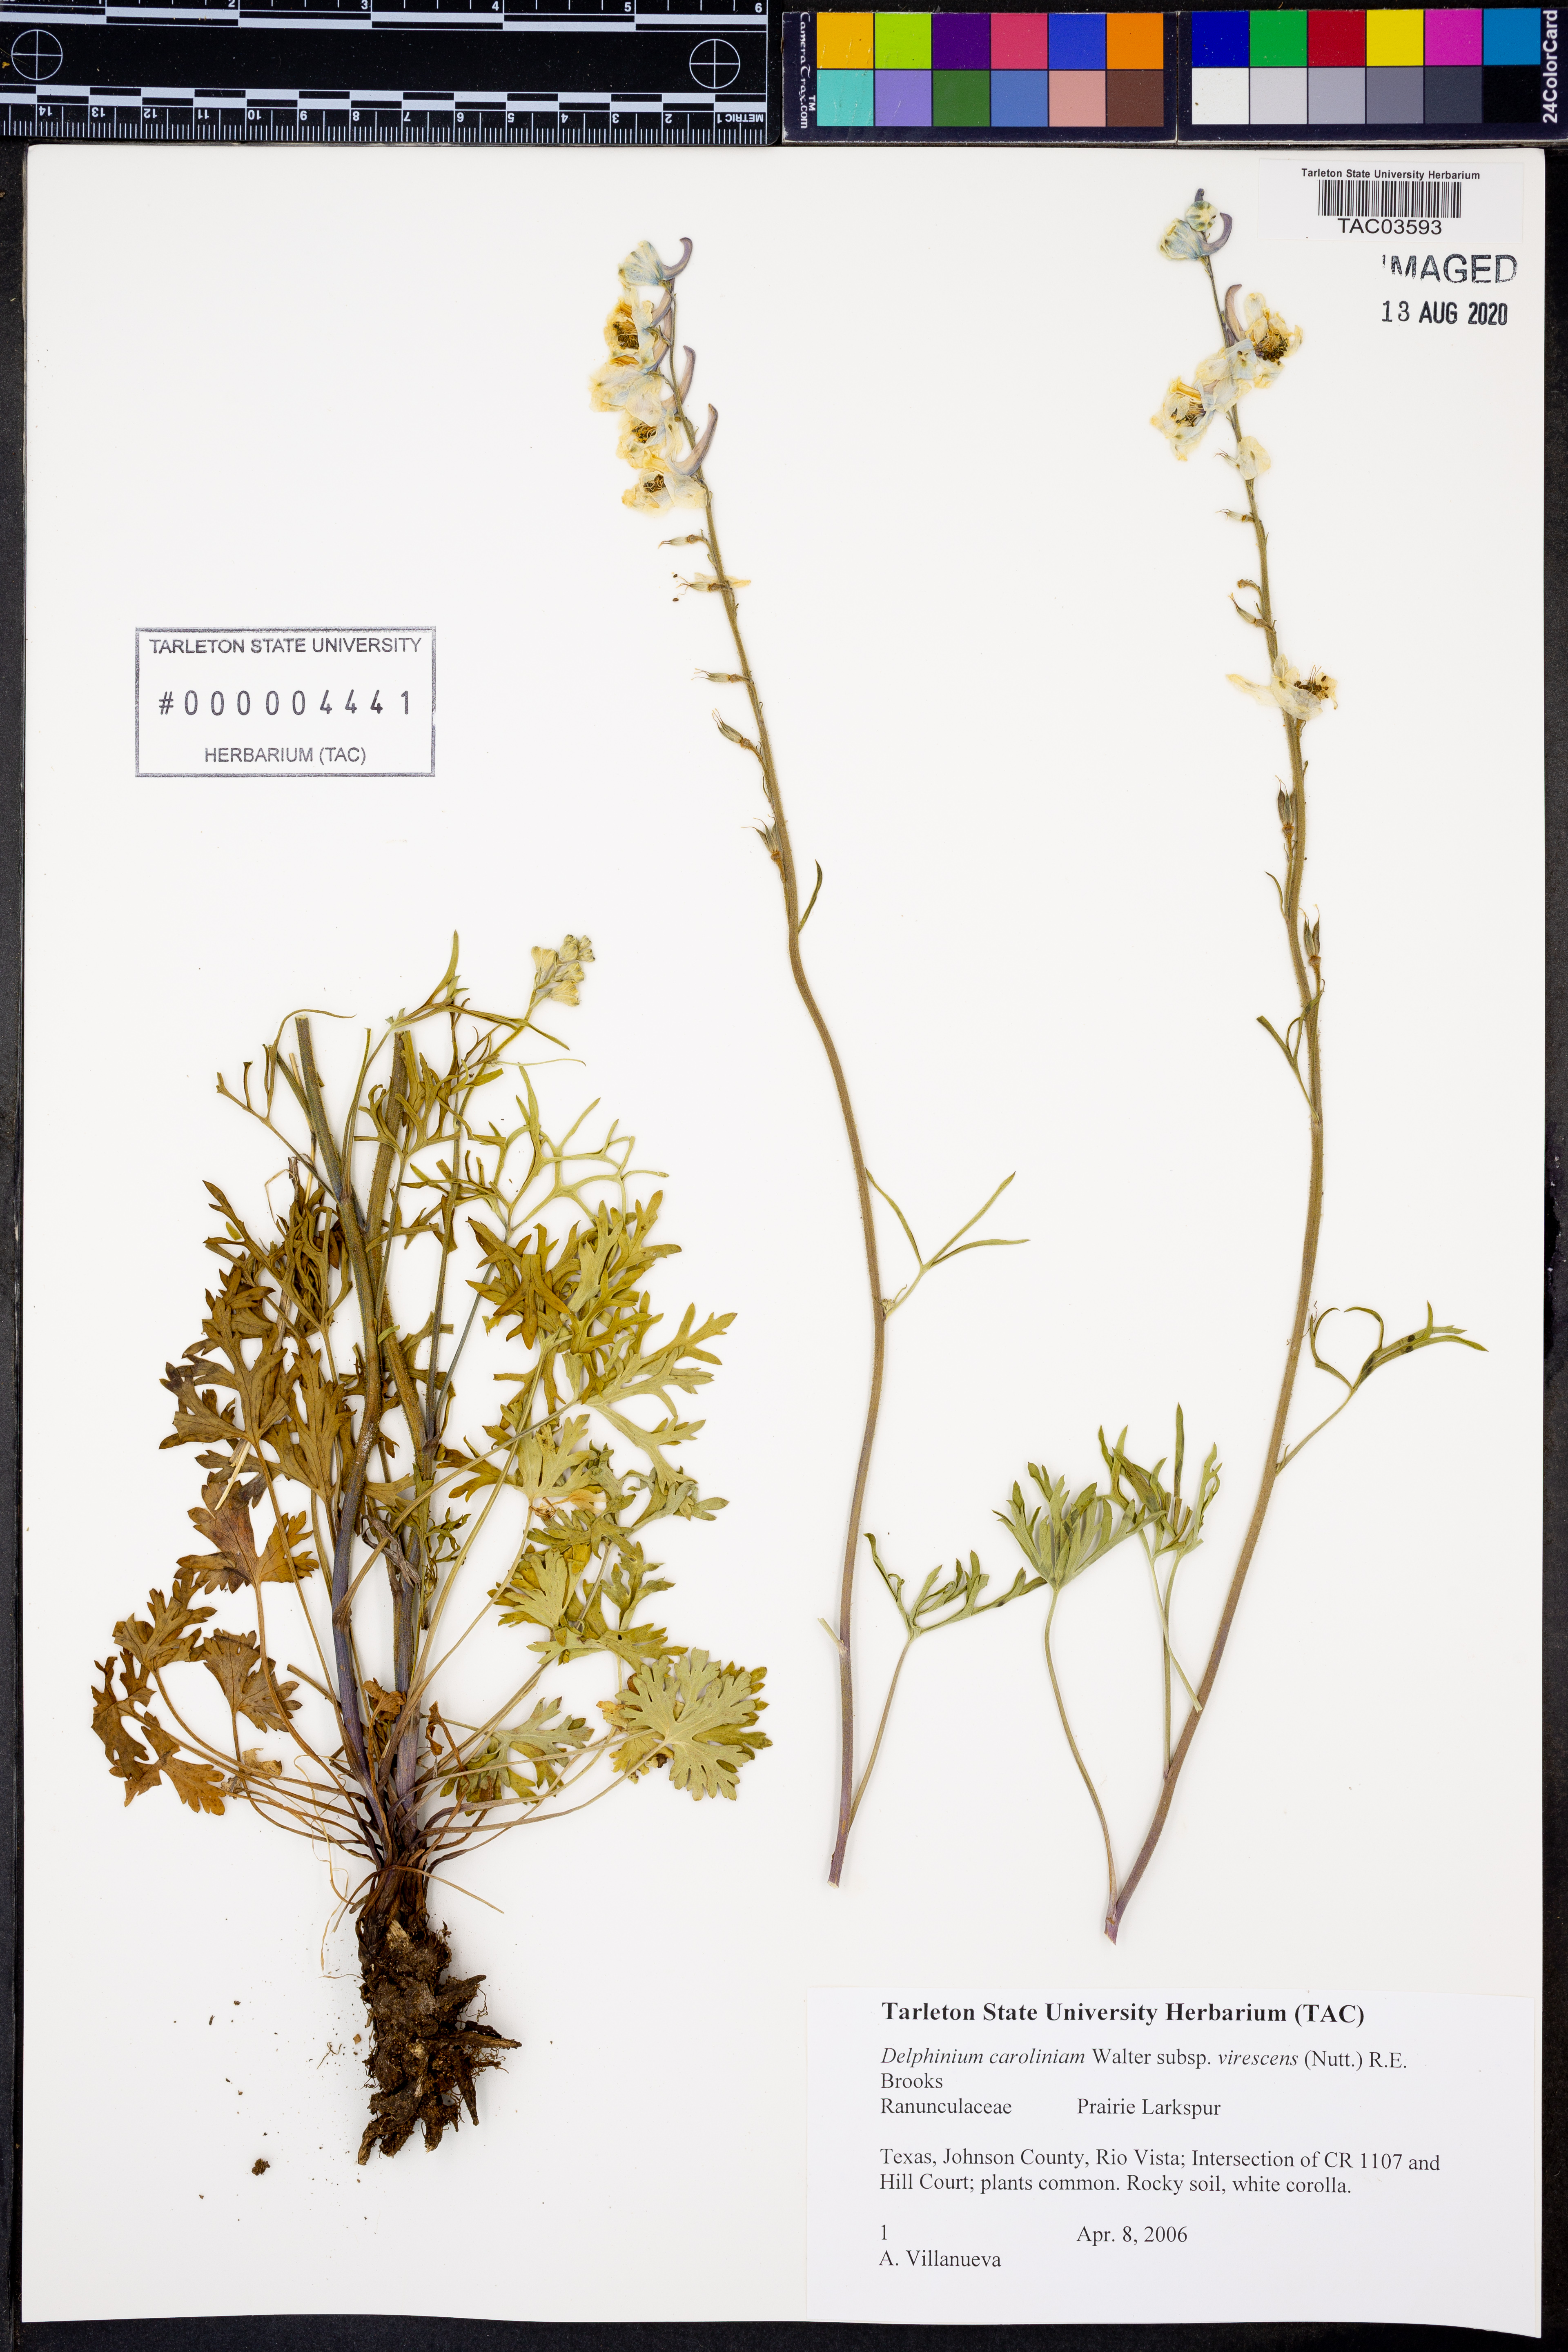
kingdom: Plantae
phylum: Tracheophyta
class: Magnoliopsida
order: Ranunculales
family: Ranunculaceae
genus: Delphinium
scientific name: Delphinium carolinianum
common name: Carolina larkspur
